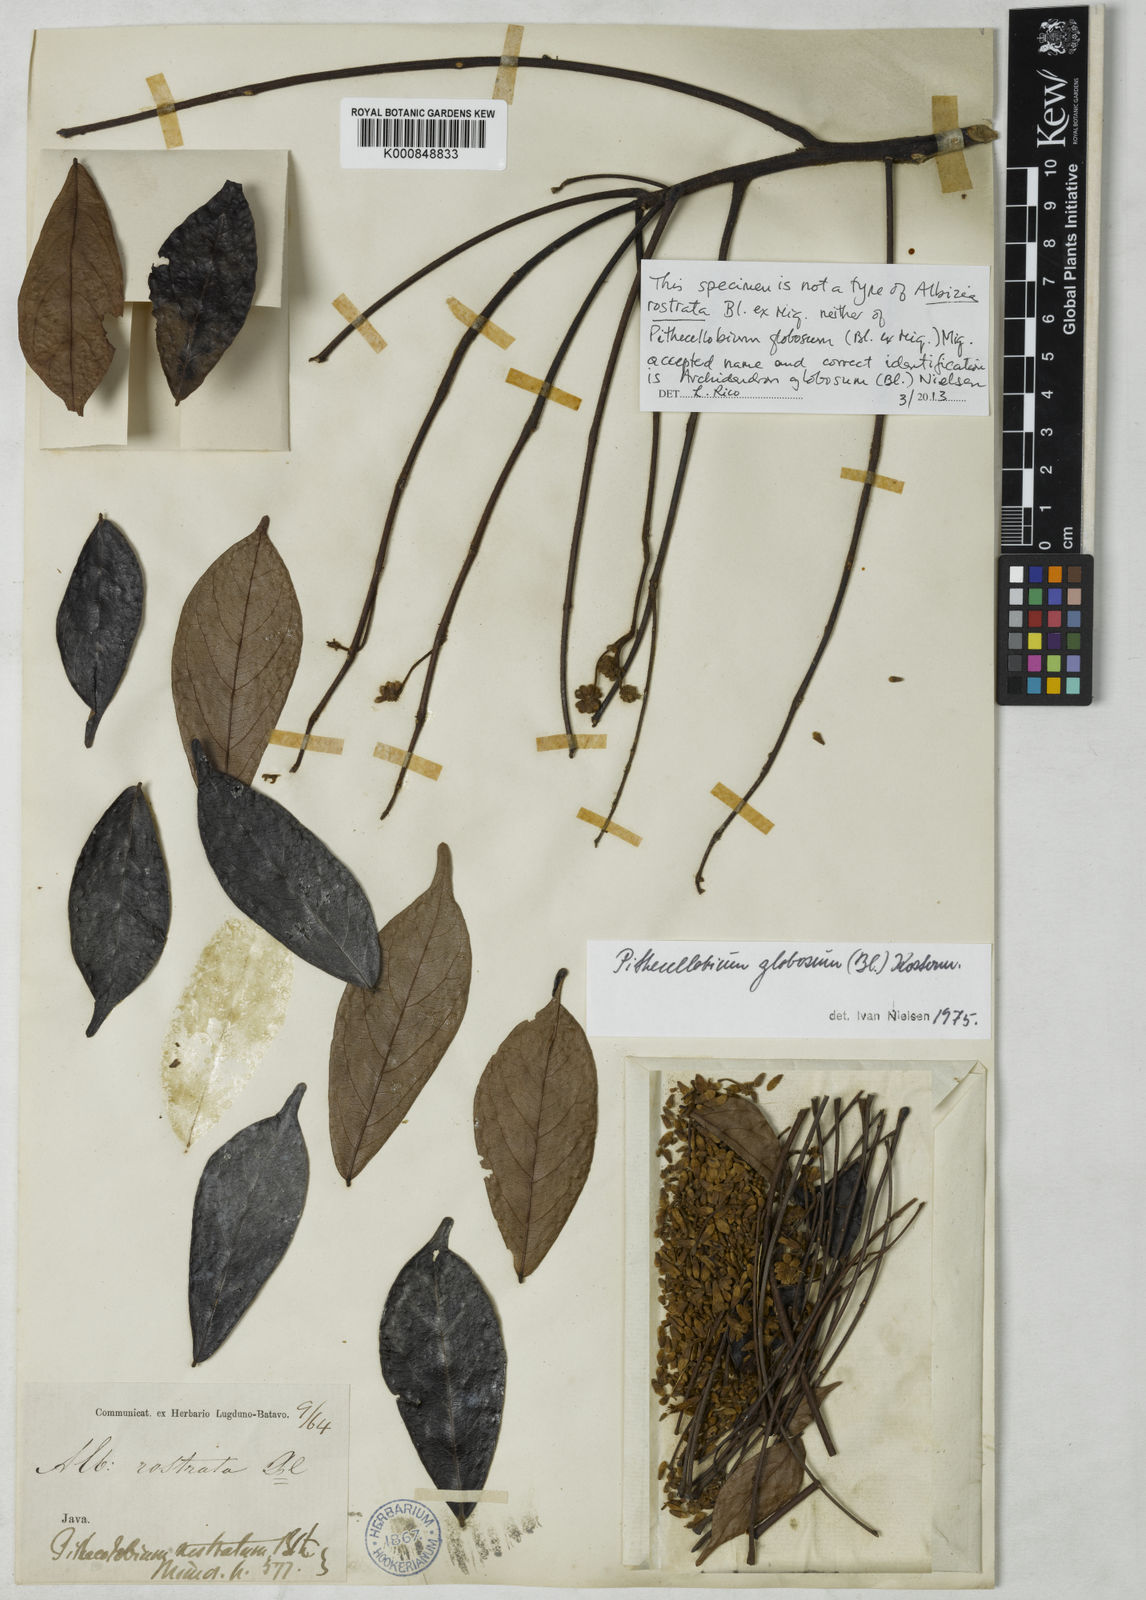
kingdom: Plantae
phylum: Tracheophyta
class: Magnoliopsida
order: Fabales
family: Fabaceae
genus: Archidendron
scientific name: Archidendron globosum
